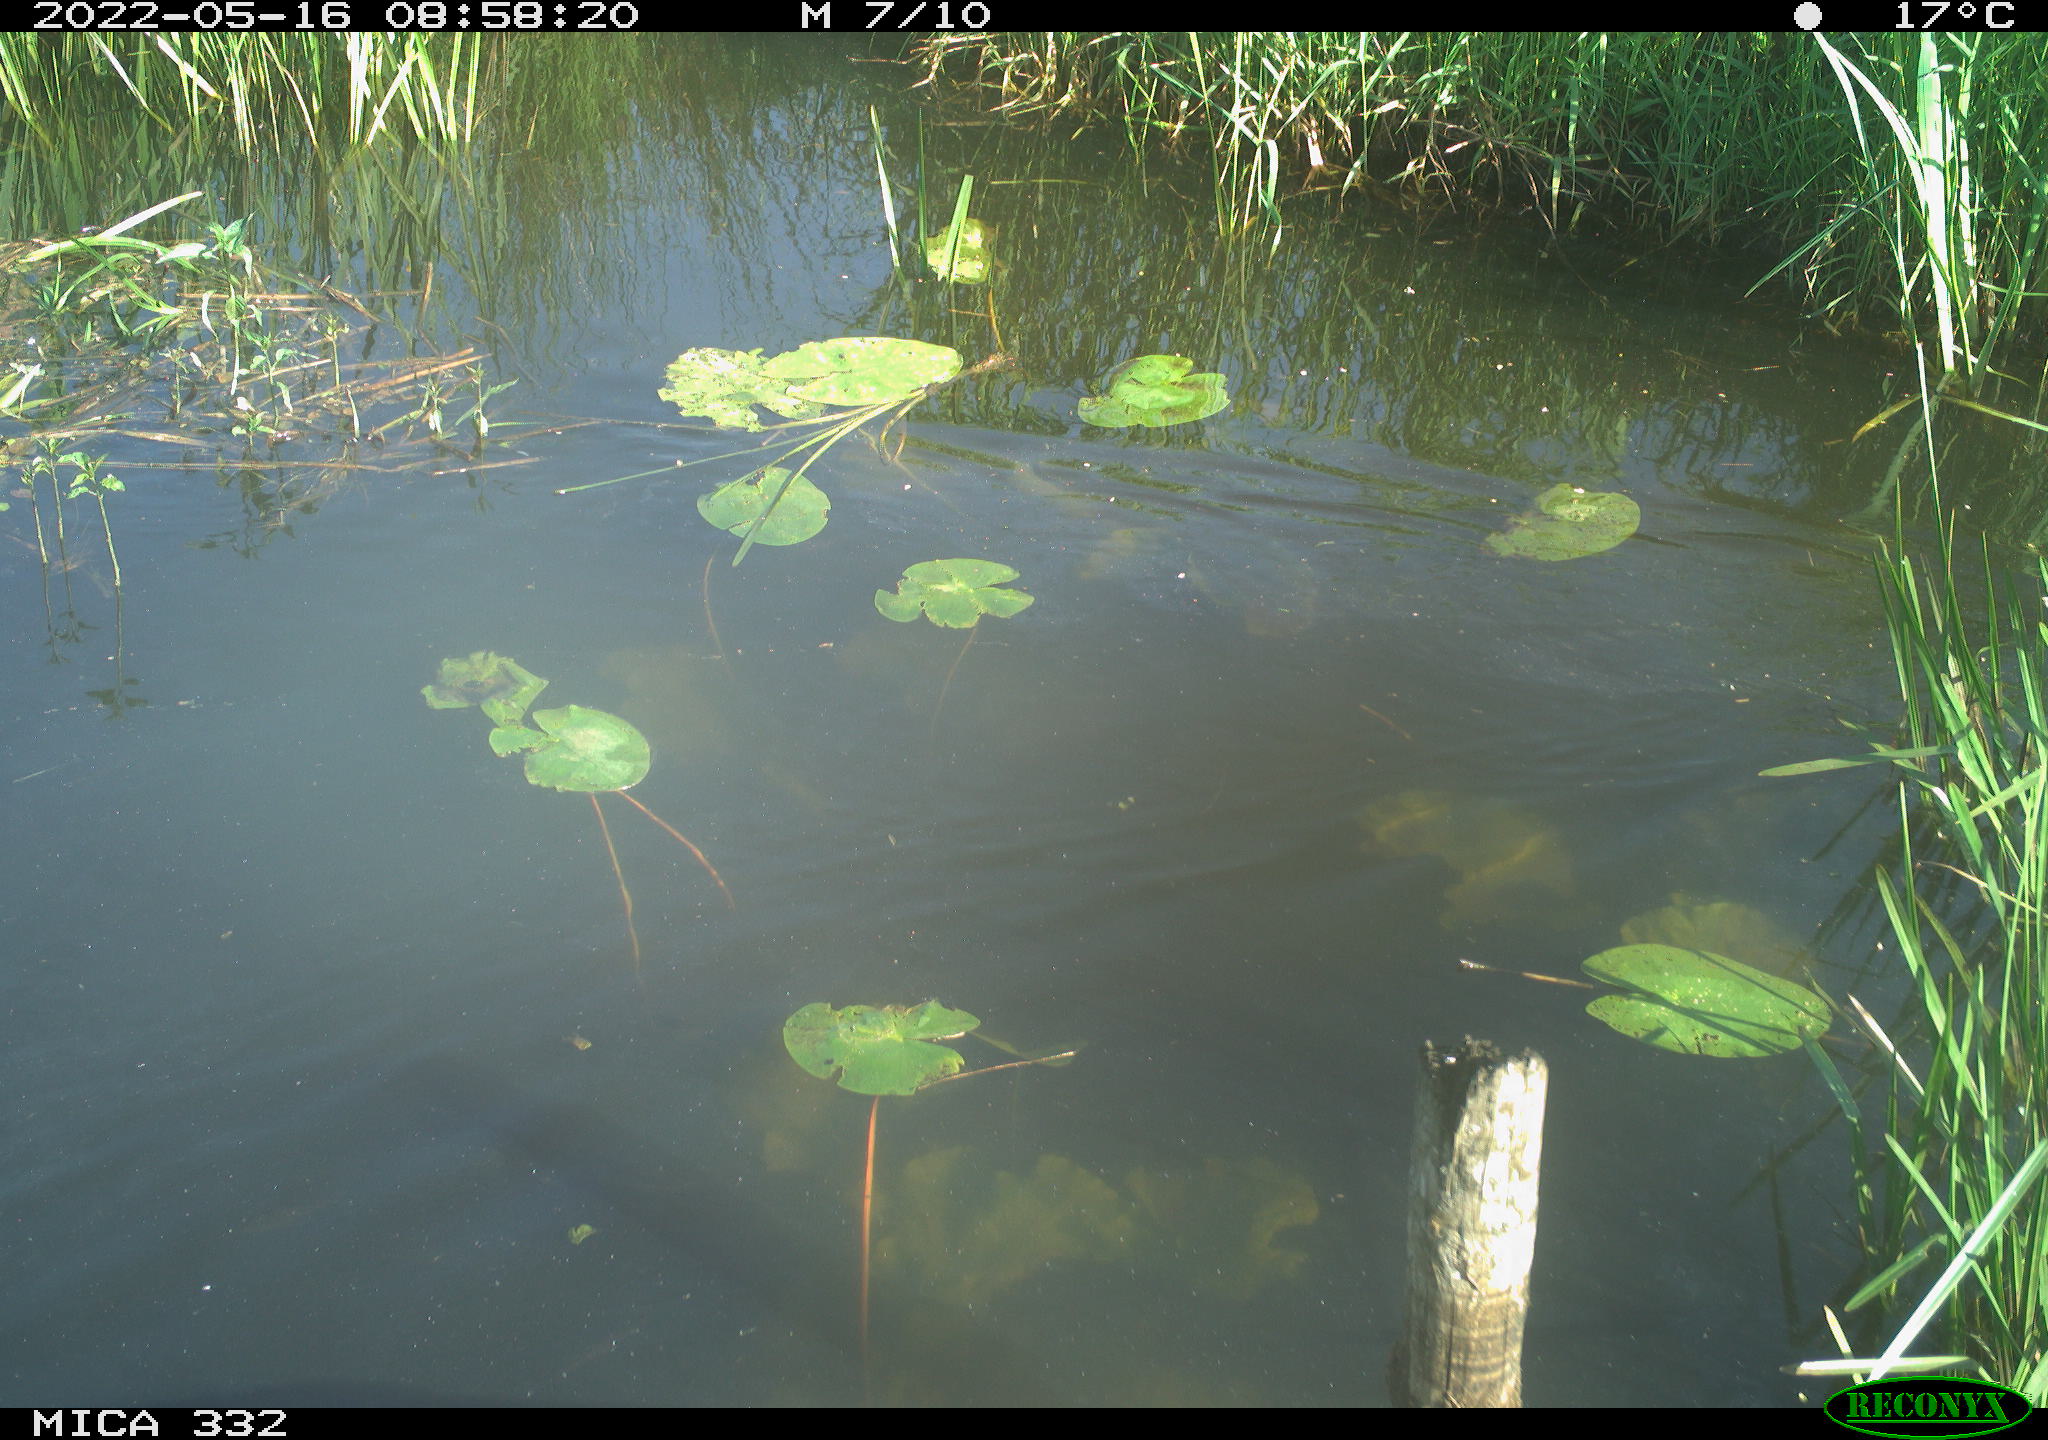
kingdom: Animalia
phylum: Chordata
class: Aves
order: Anseriformes
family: Anatidae
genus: Anas
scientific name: Anas platyrhynchos
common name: Mallard
